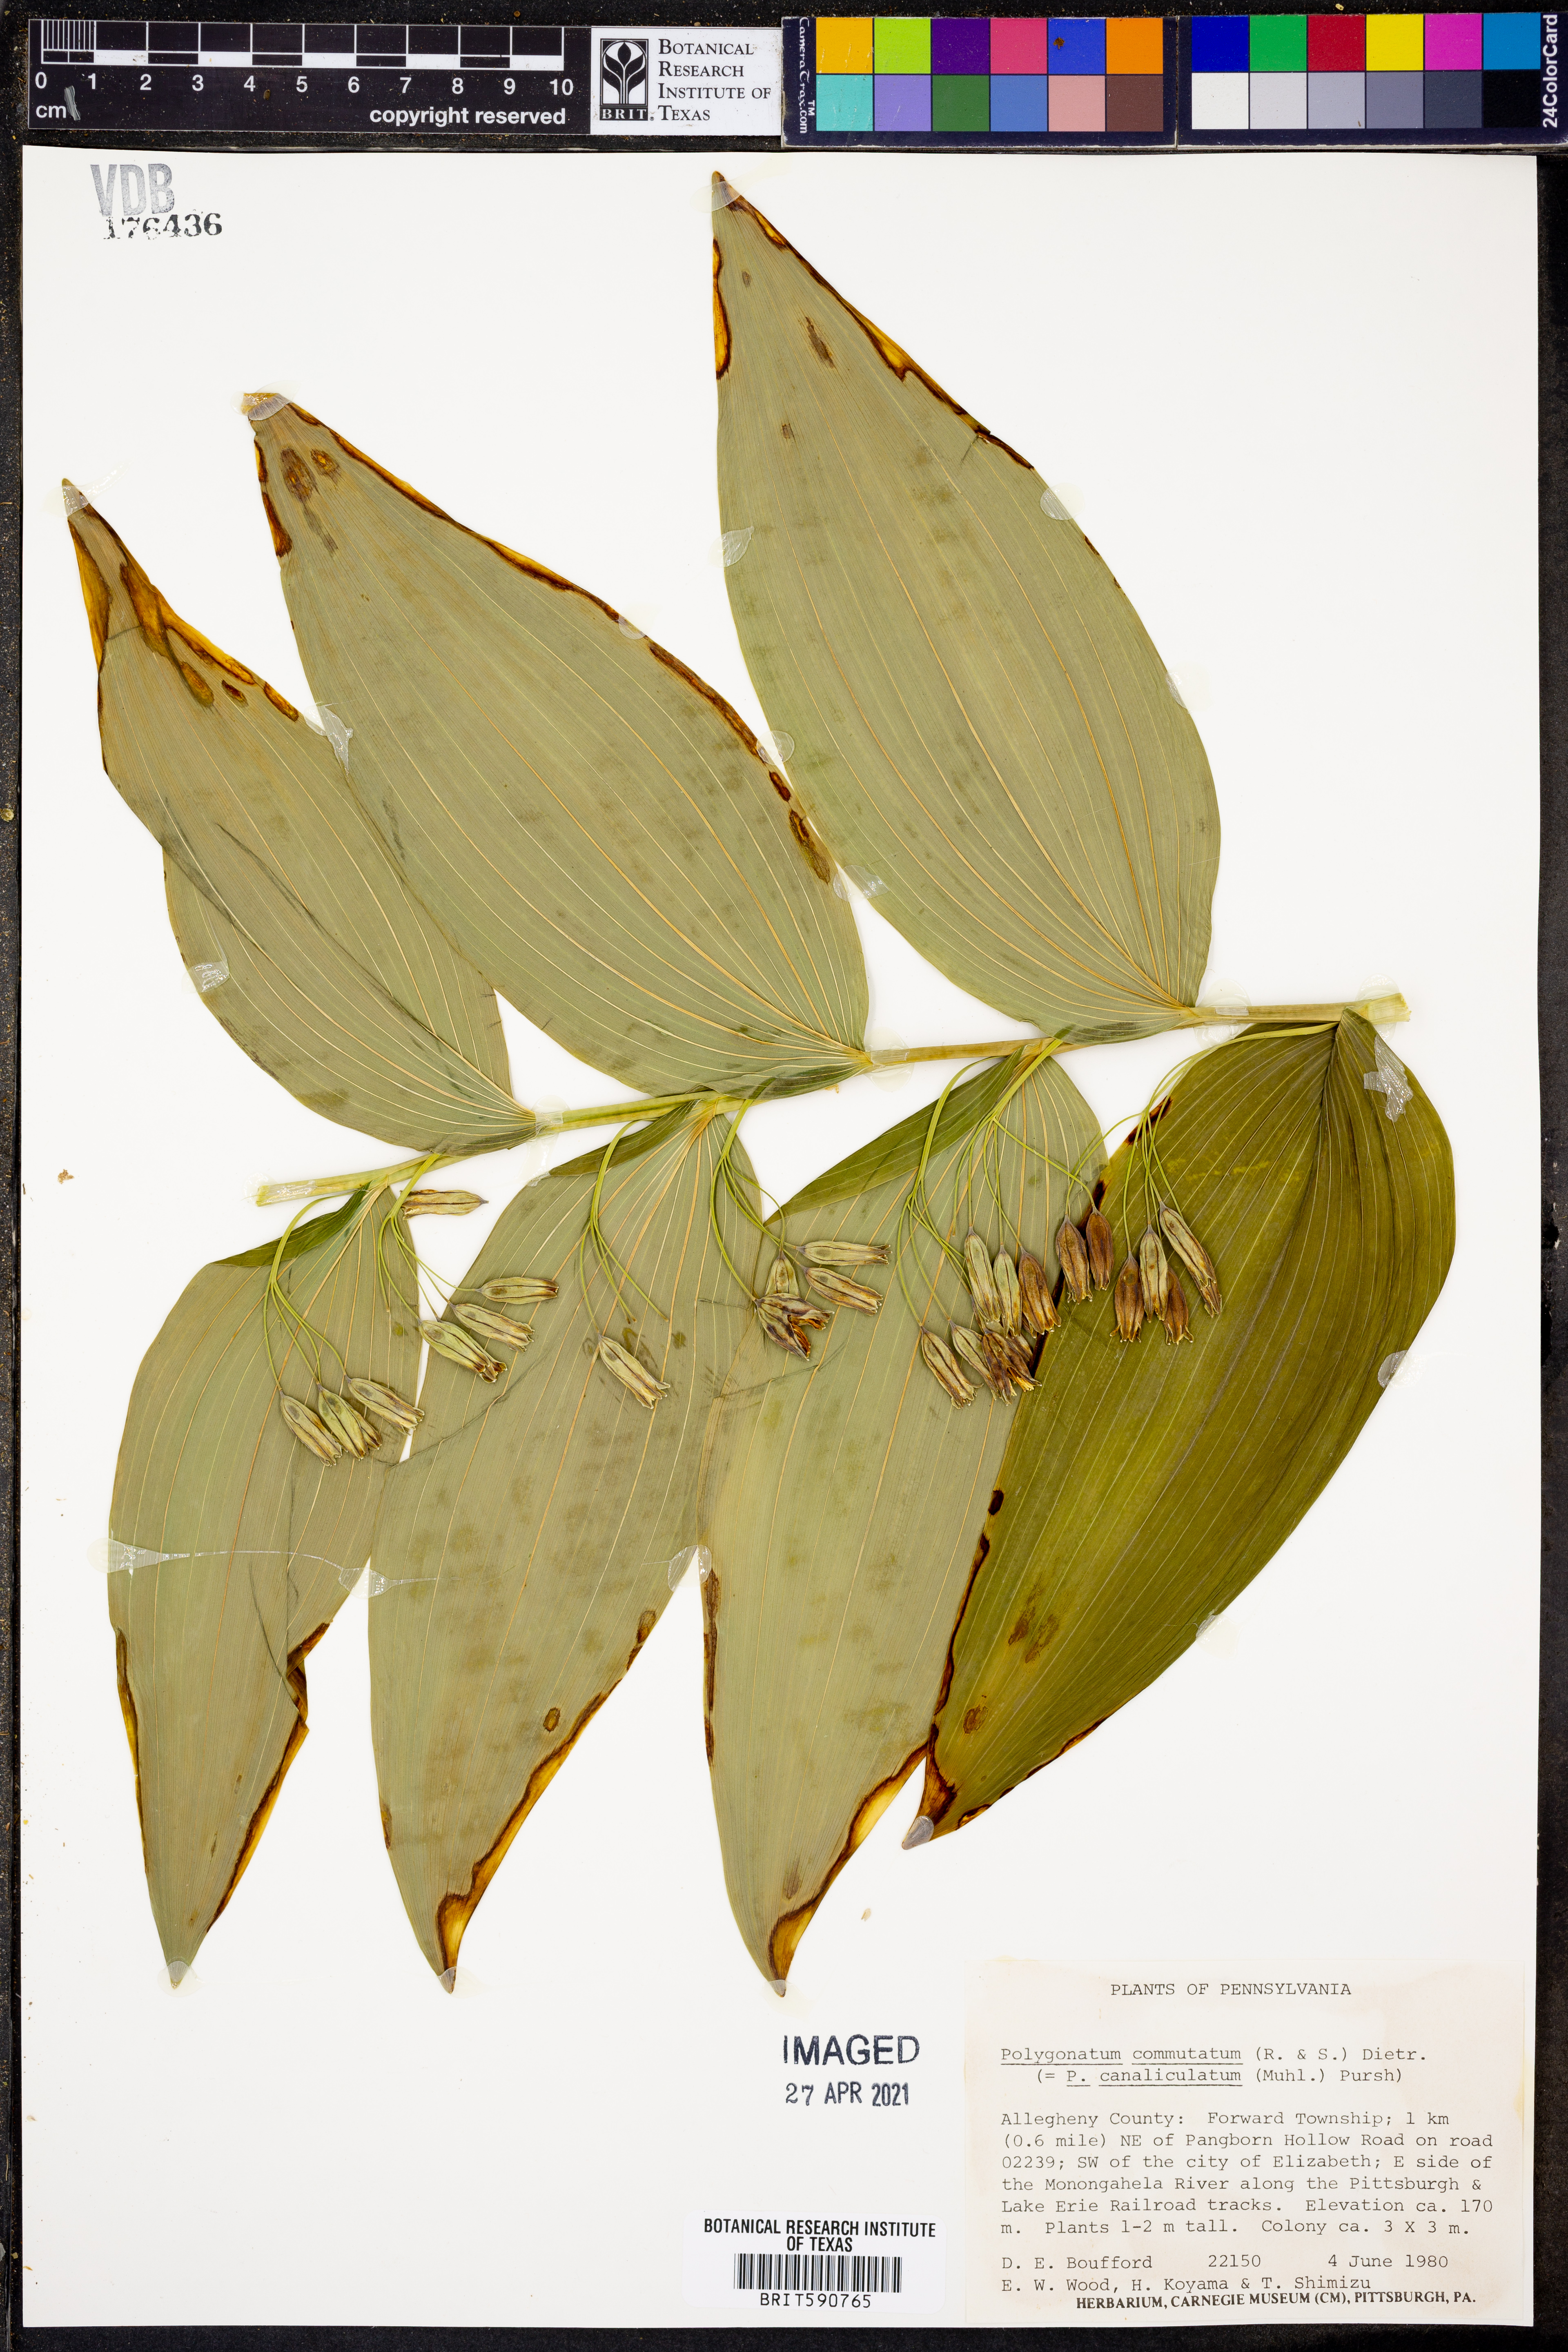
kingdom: Plantae
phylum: Tracheophyta
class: Liliopsida
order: Asparagales
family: Asparagaceae
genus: Polygonatum
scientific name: Polygonatum biflorum
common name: American solomon's-seal
